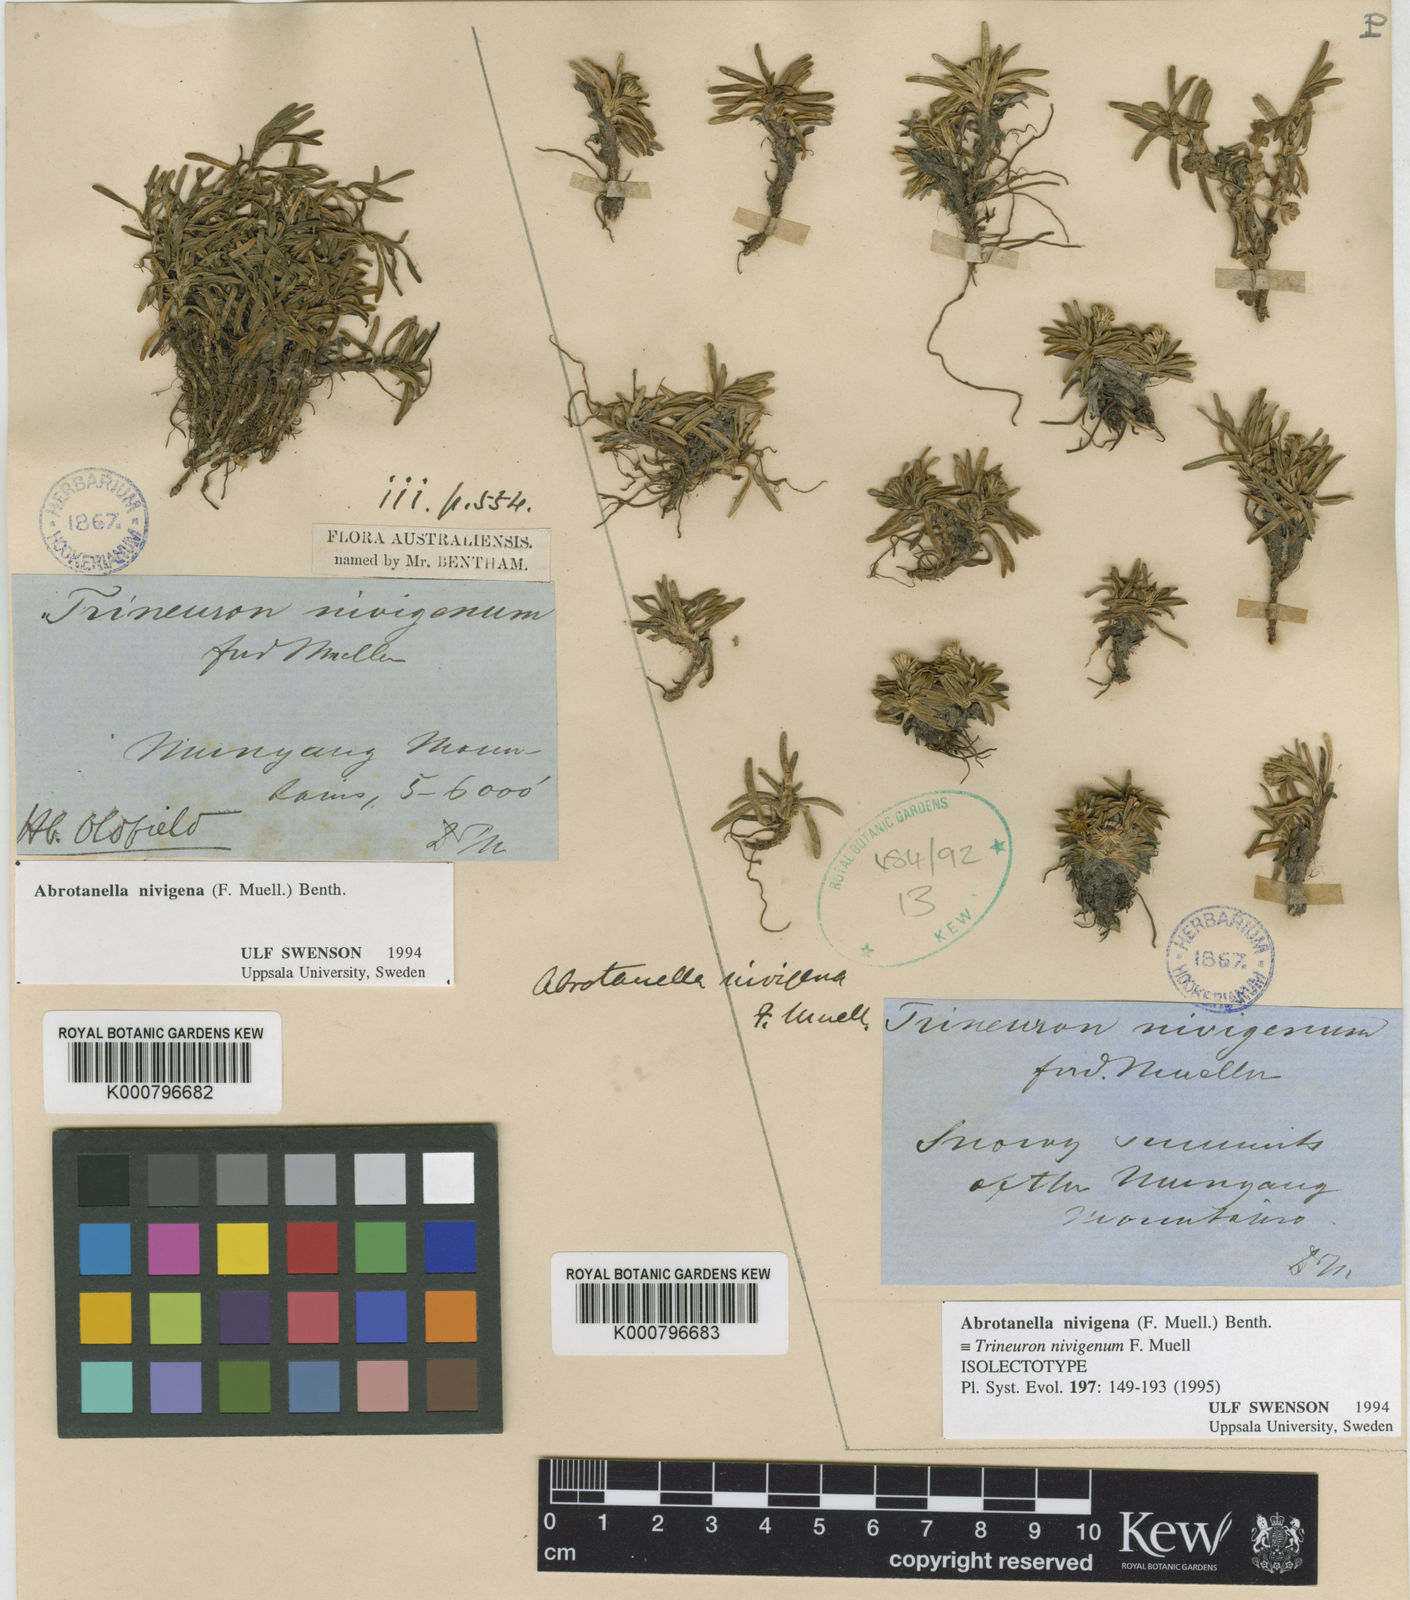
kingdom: Plantae
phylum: Tracheophyta
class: Magnoliopsida
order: Asterales
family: Asteraceae
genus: Abrotanella
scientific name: Abrotanella
